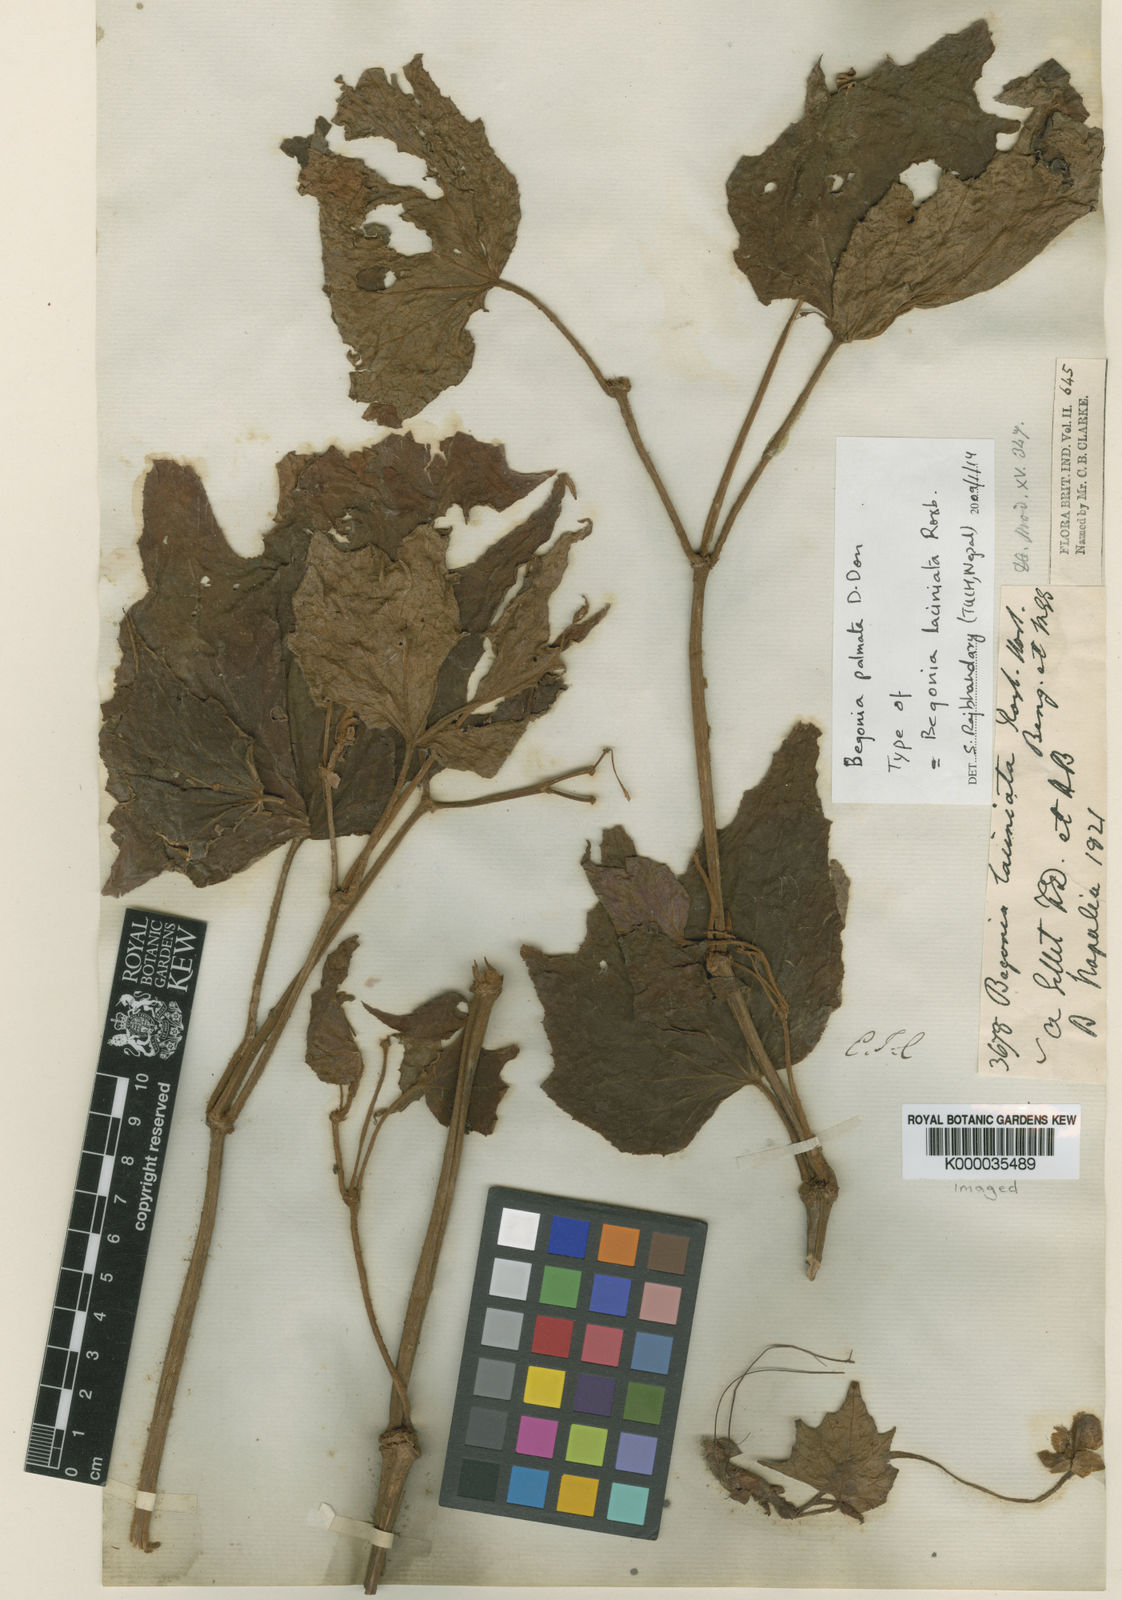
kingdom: Plantae
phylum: Tracheophyta
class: Magnoliopsida
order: Cucurbitales
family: Begoniaceae
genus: Begonia
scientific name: Begonia palmata
